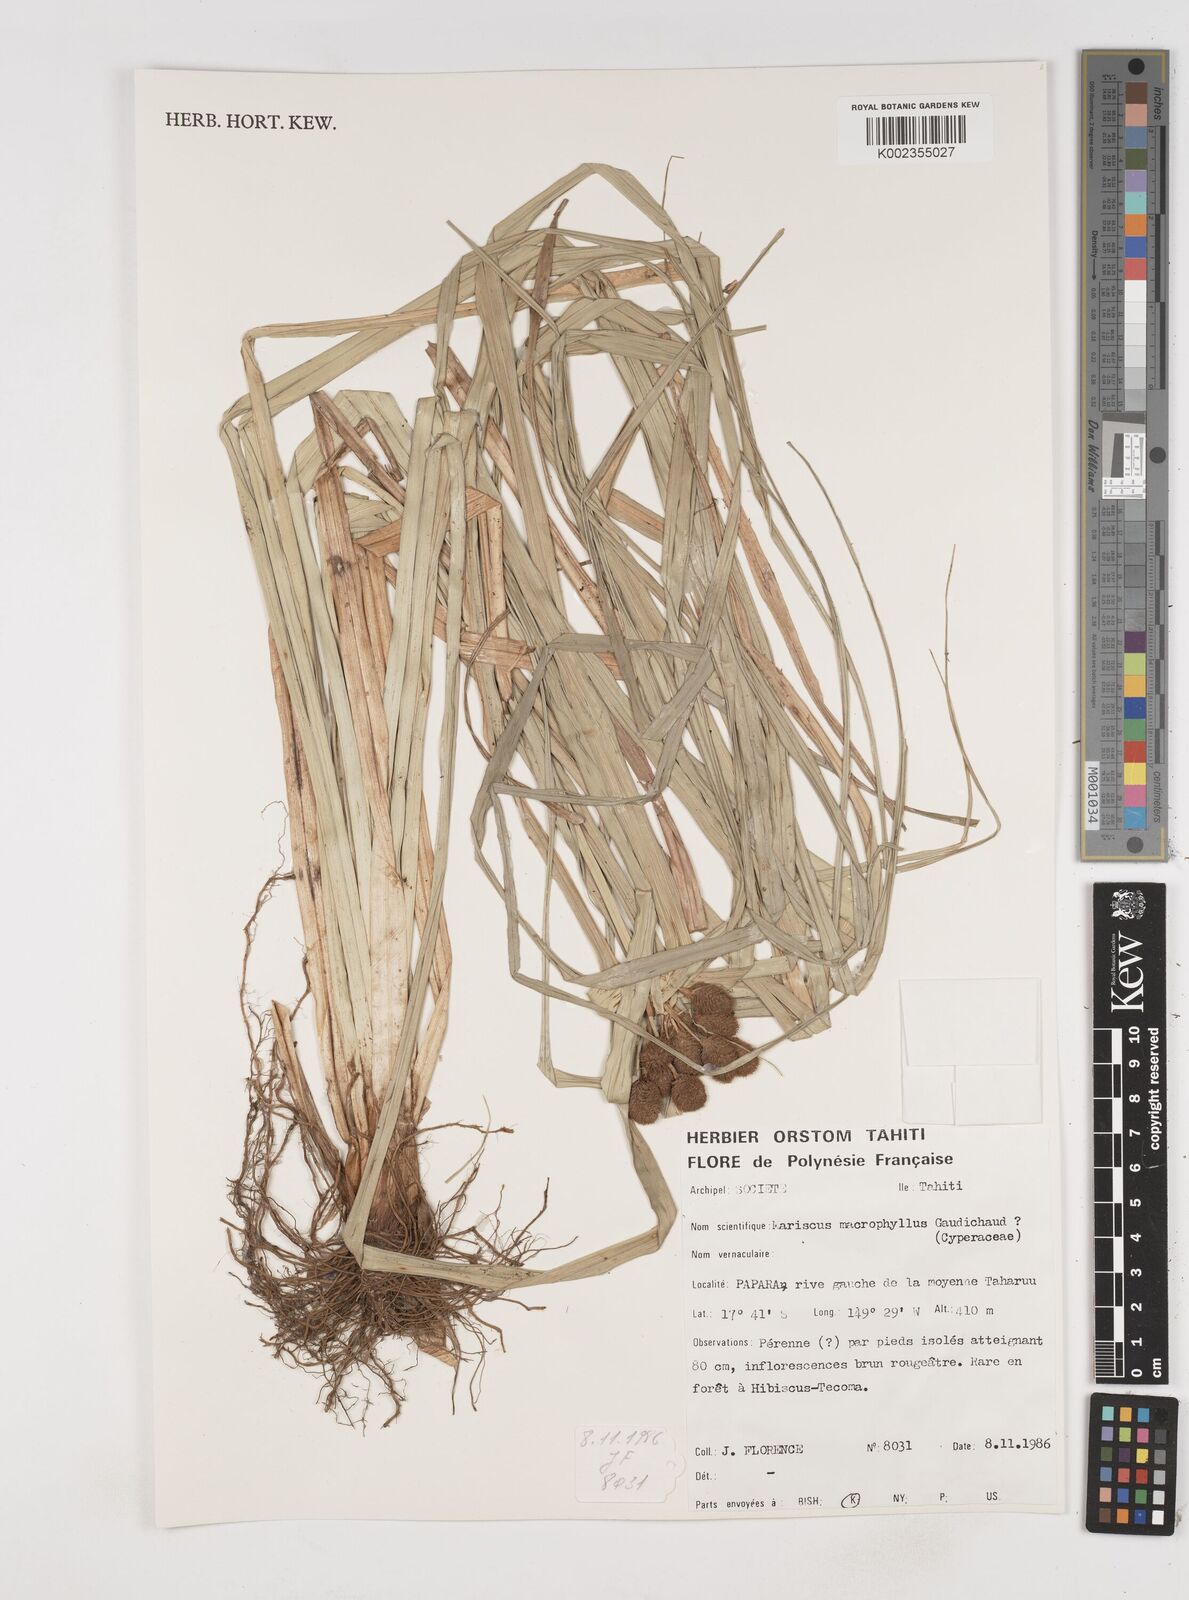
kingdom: Plantae
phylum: Tracheophyta
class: Liliopsida
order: Poales
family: Cyperaceae
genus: Cyperus
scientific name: Cyperus macrophyllus
